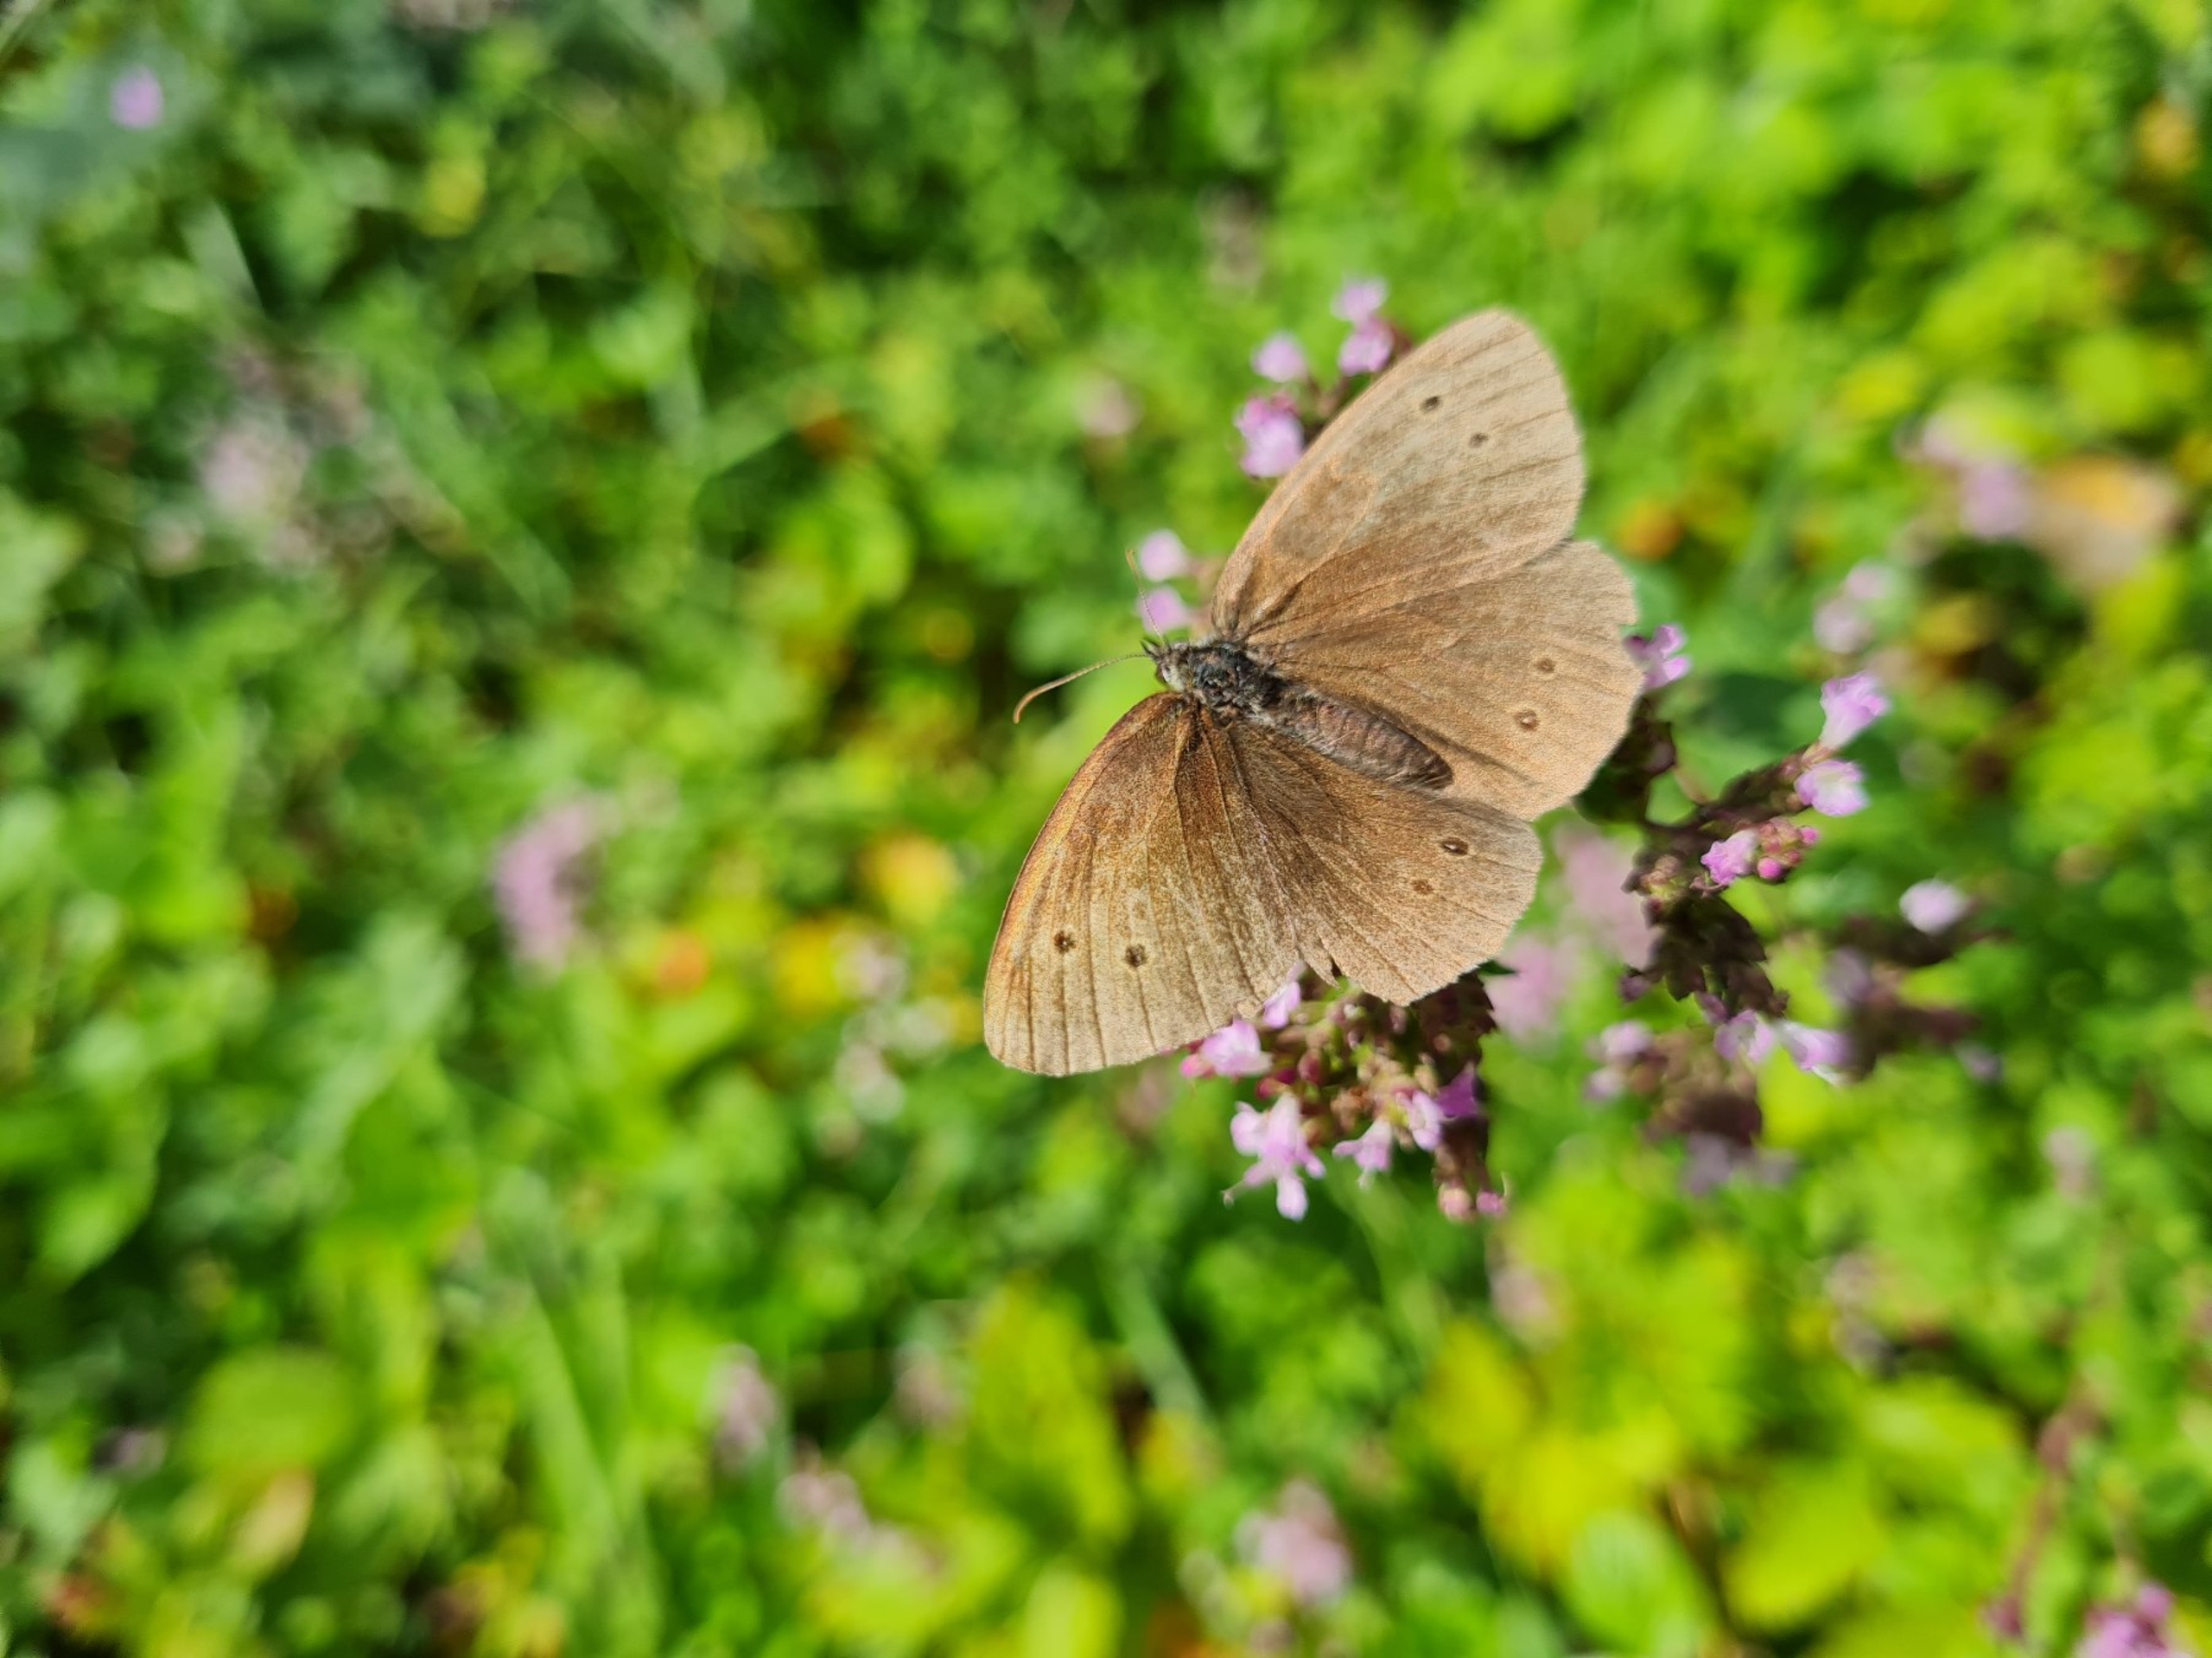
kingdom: Animalia
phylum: Arthropoda
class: Insecta
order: Lepidoptera
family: Nymphalidae
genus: Aphantopus
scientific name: Aphantopus hyperantus
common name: Engrandøje
